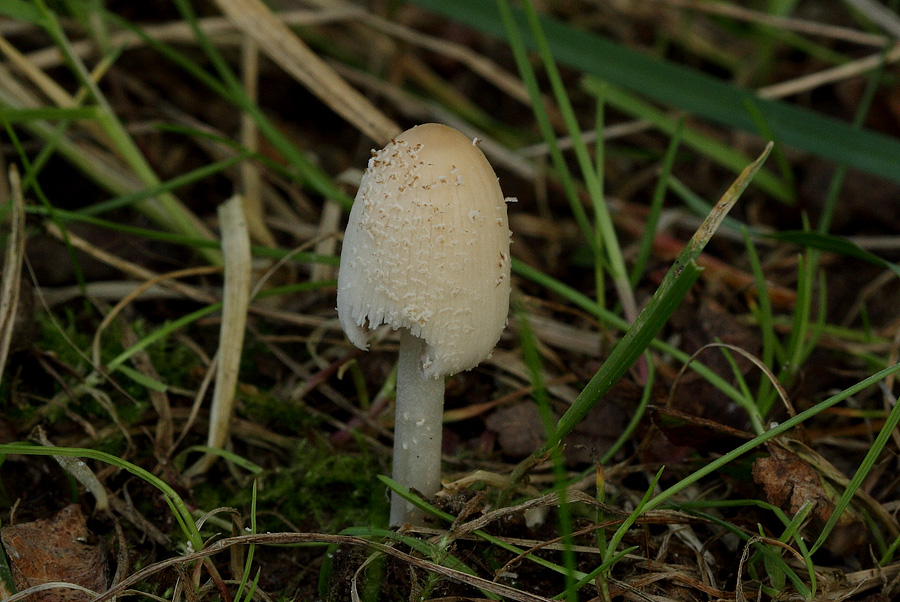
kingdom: Fungi
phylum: Basidiomycota
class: Agaricomycetes
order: Agaricales
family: Psathyrellaceae
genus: Coprinellus
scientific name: Coprinellus xanthothrix
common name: gultrådet blækhat
